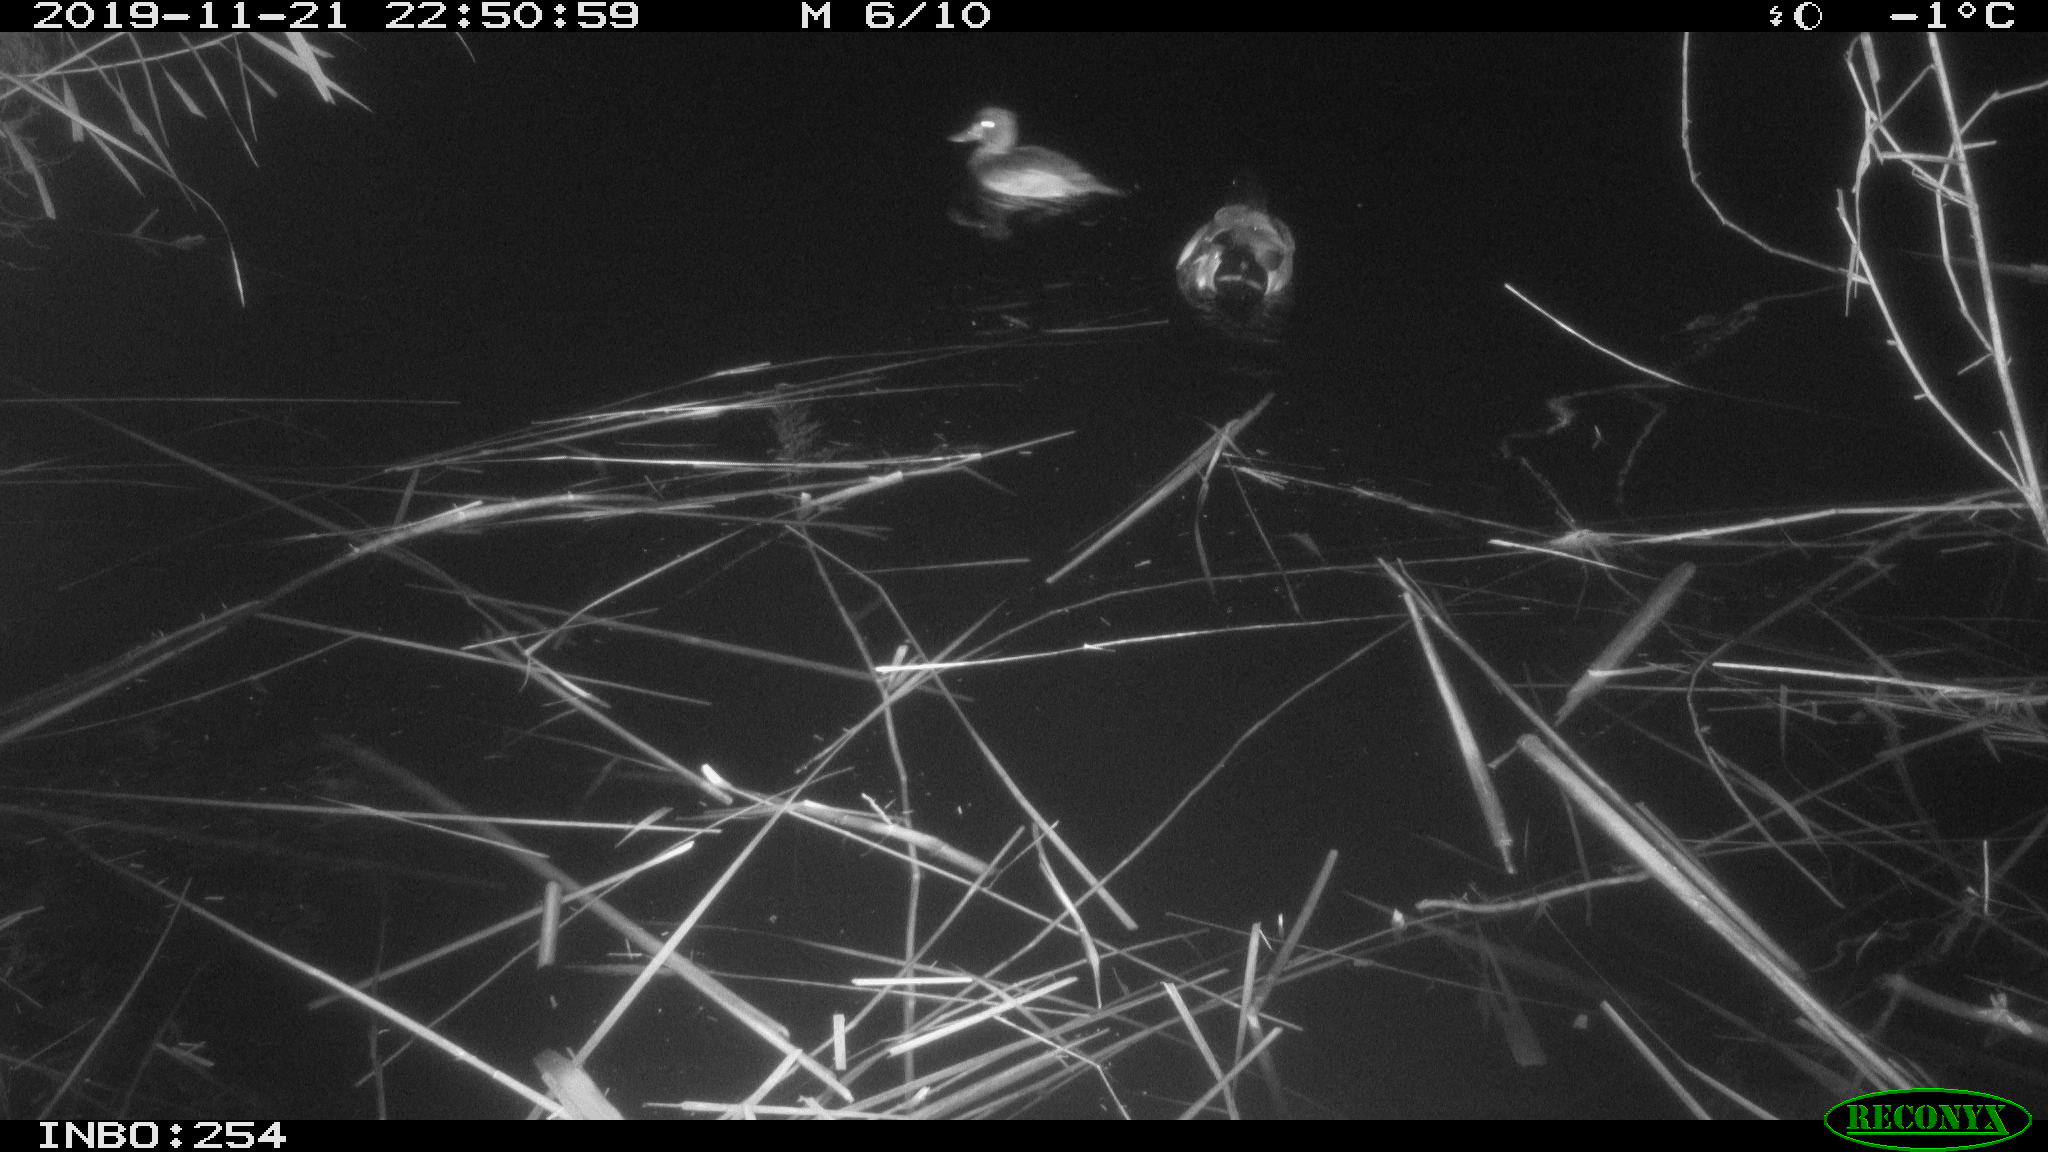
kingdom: Animalia
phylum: Chordata
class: Aves
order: Anseriformes
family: Anatidae
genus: Anas
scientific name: Anas platyrhynchos
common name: Mallard
